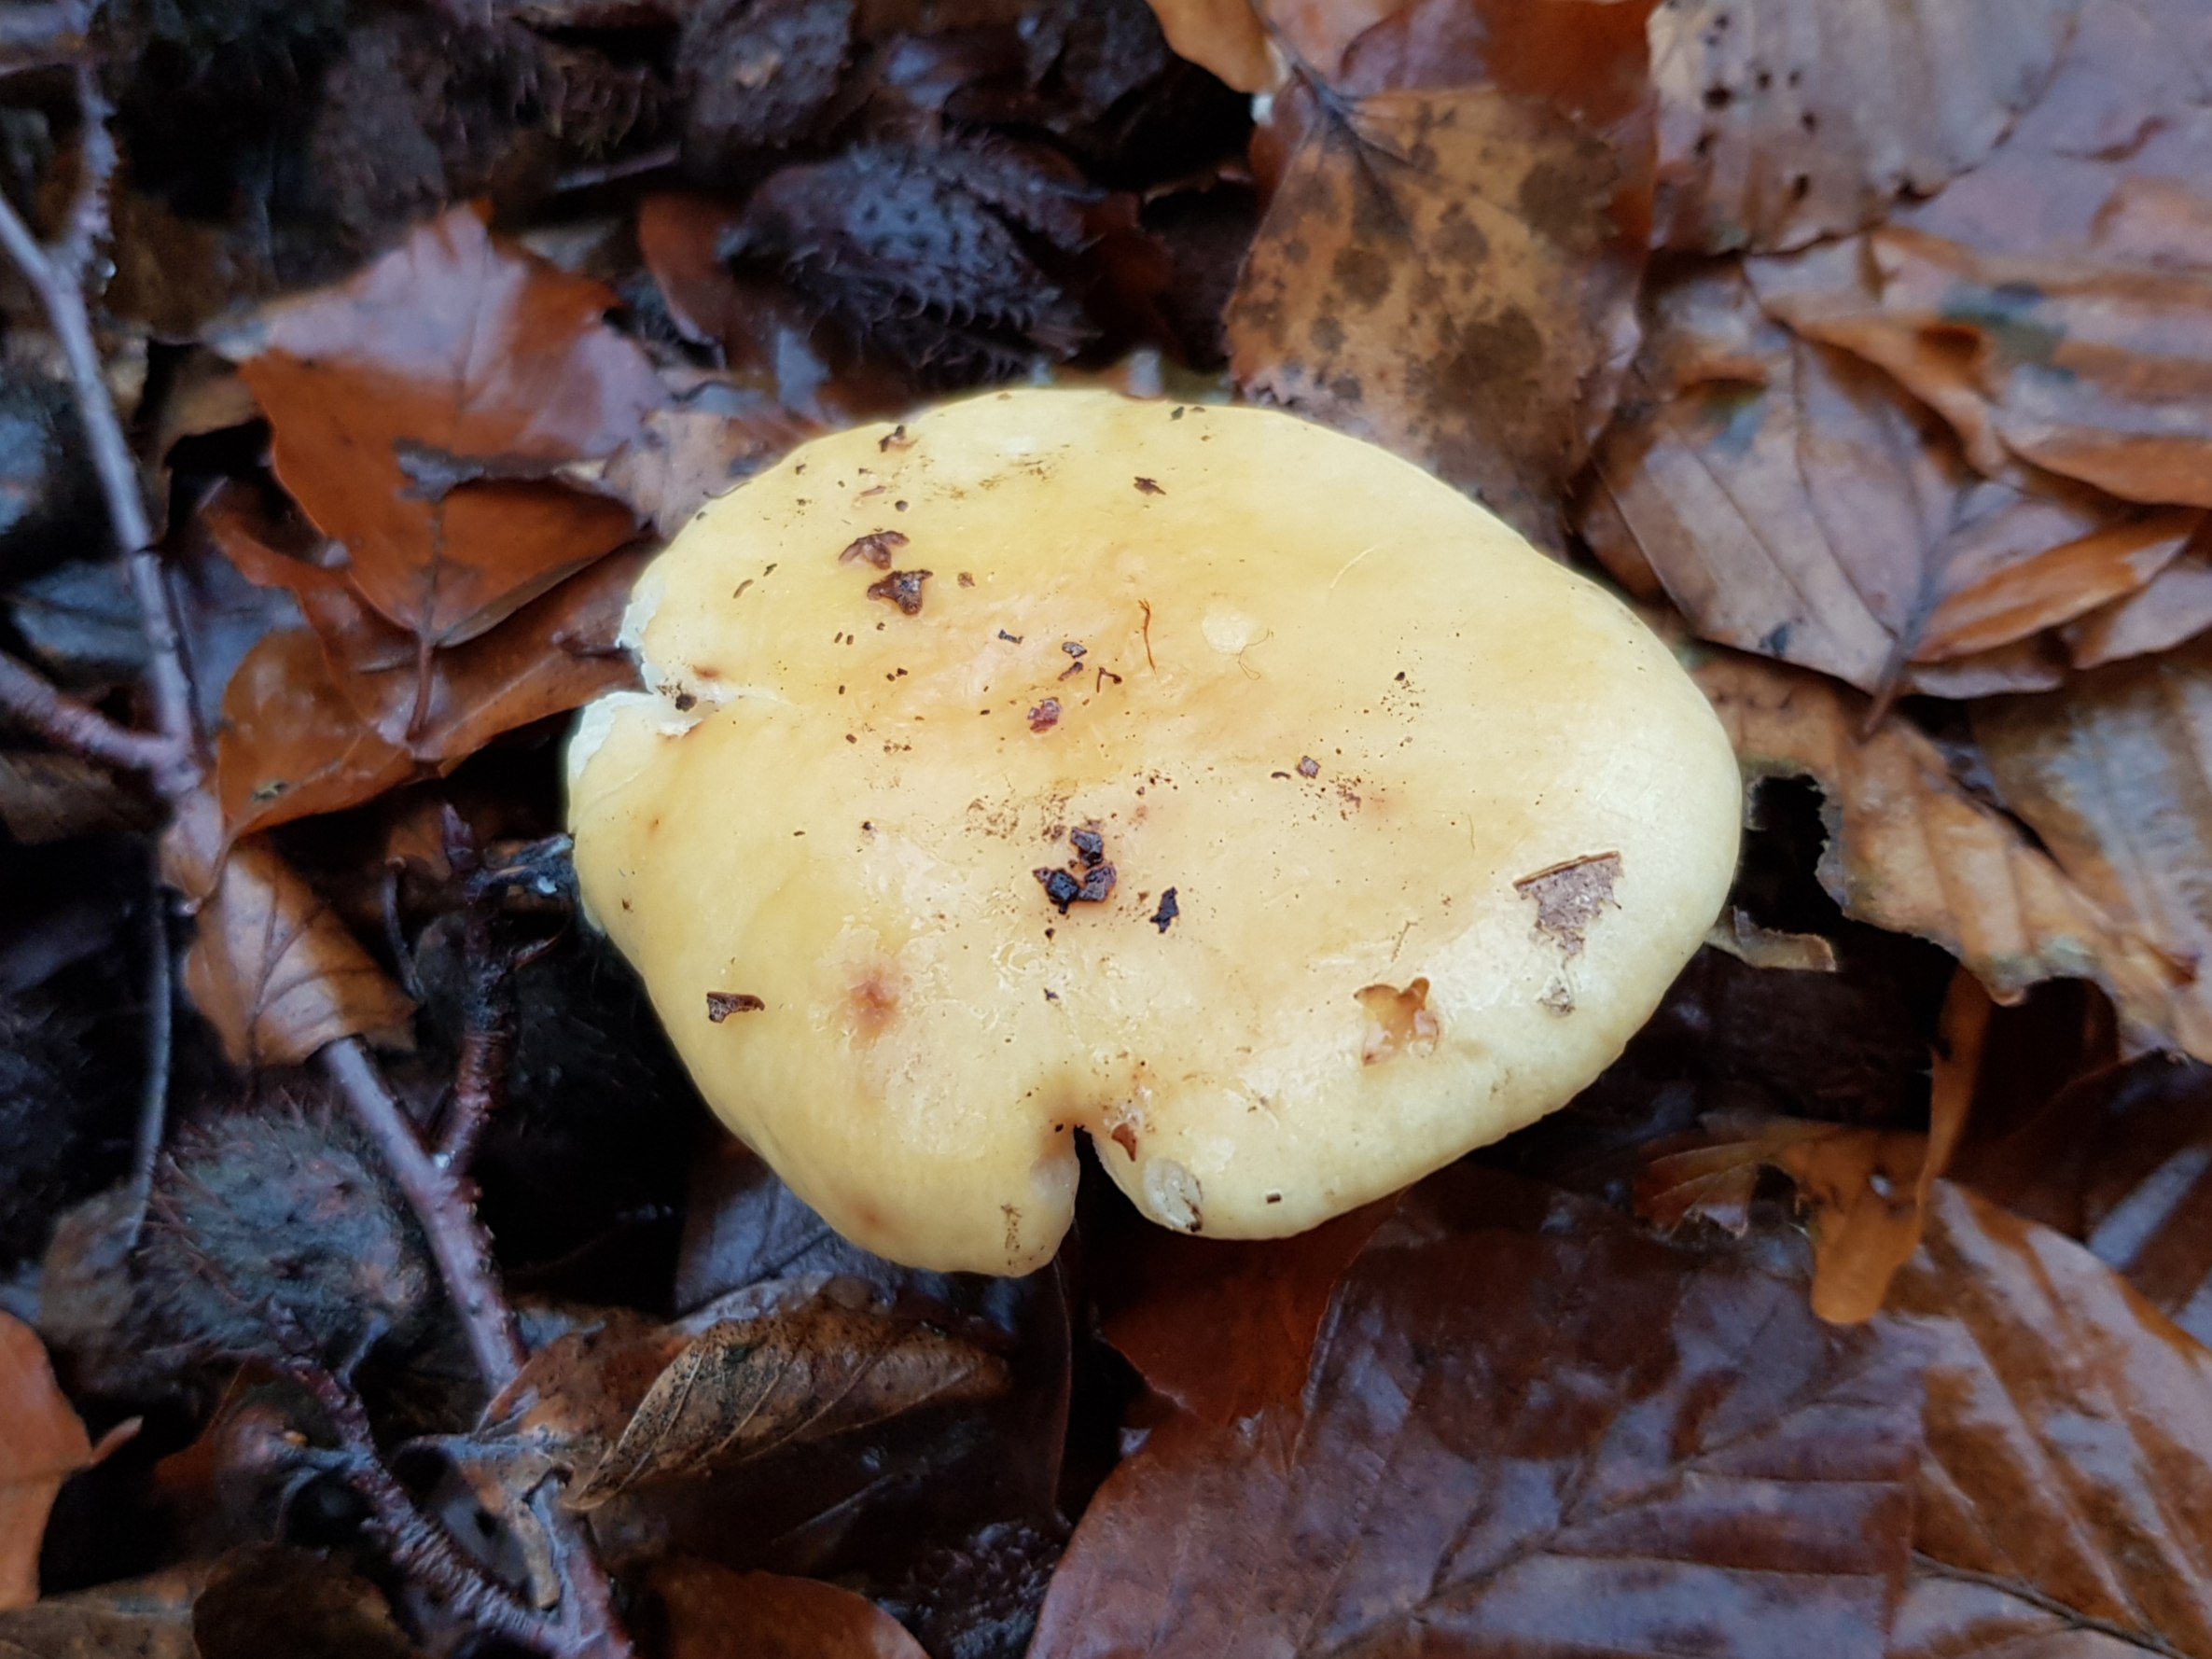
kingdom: Fungi
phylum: Basidiomycota
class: Agaricomycetes
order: Russulales
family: Russulaceae
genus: Russula
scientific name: Russula fellea
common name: galde-skørhat
